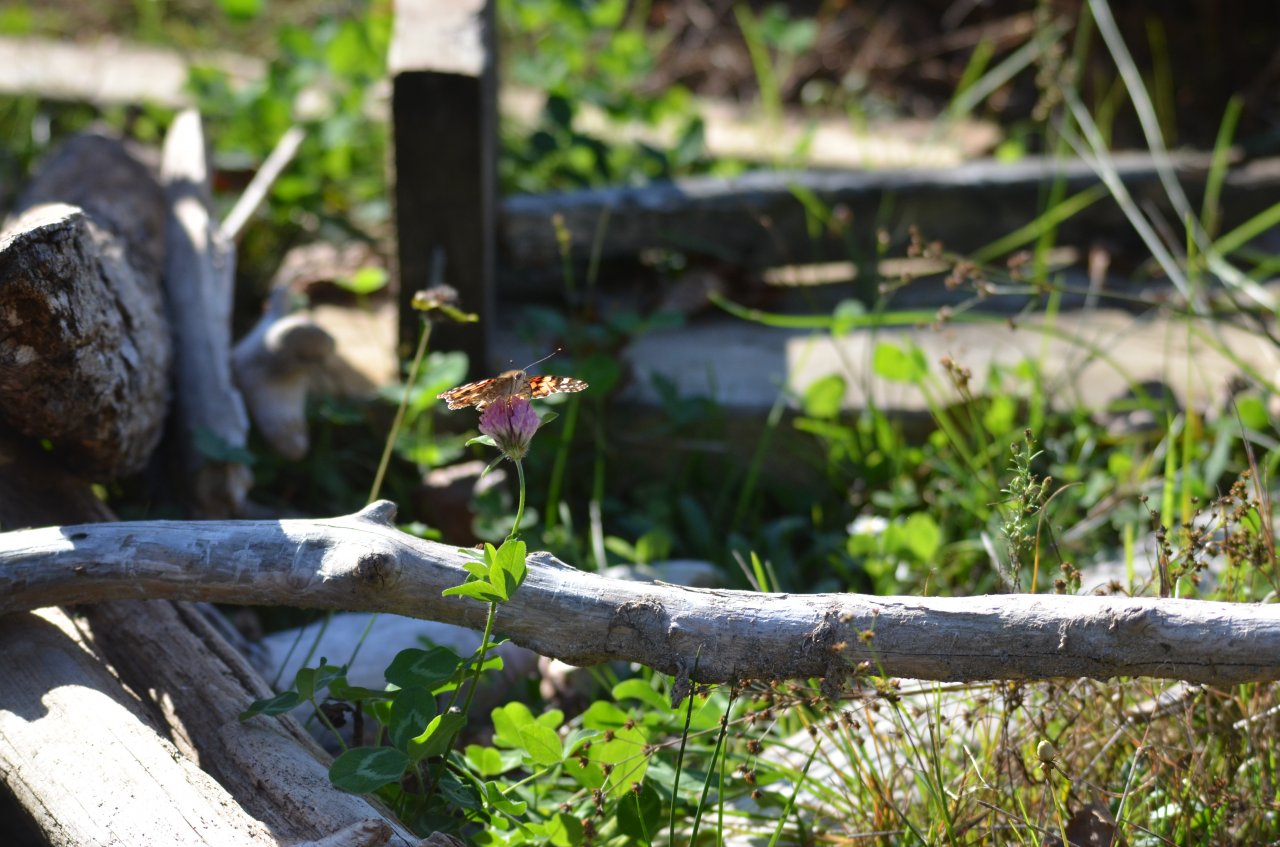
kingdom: Animalia
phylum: Arthropoda
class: Insecta
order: Lepidoptera
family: Nymphalidae
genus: Vanessa
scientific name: Vanessa cardui
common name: Painted Lady
